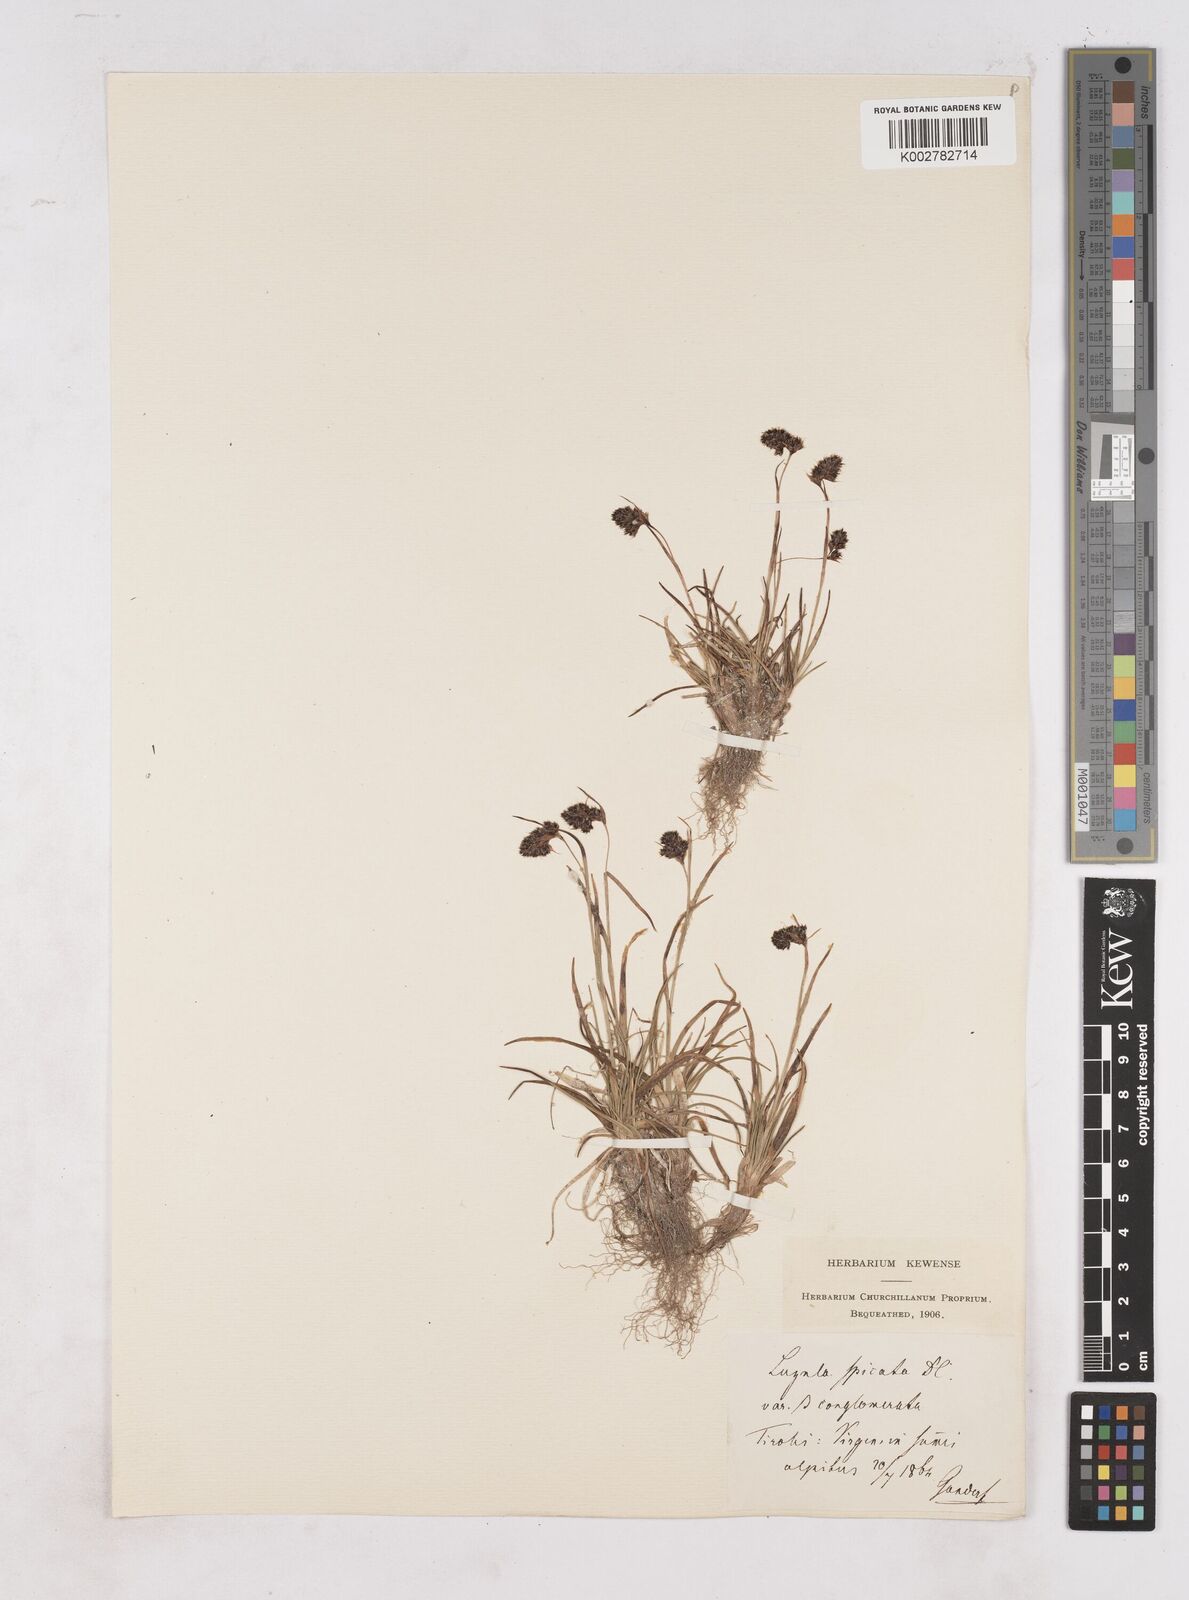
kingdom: Plantae
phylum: Tracheophyta
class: Liliopsida
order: Poales
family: Juncaceae
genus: Luzula
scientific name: Luzula spicata
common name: Spiked wood-rush
